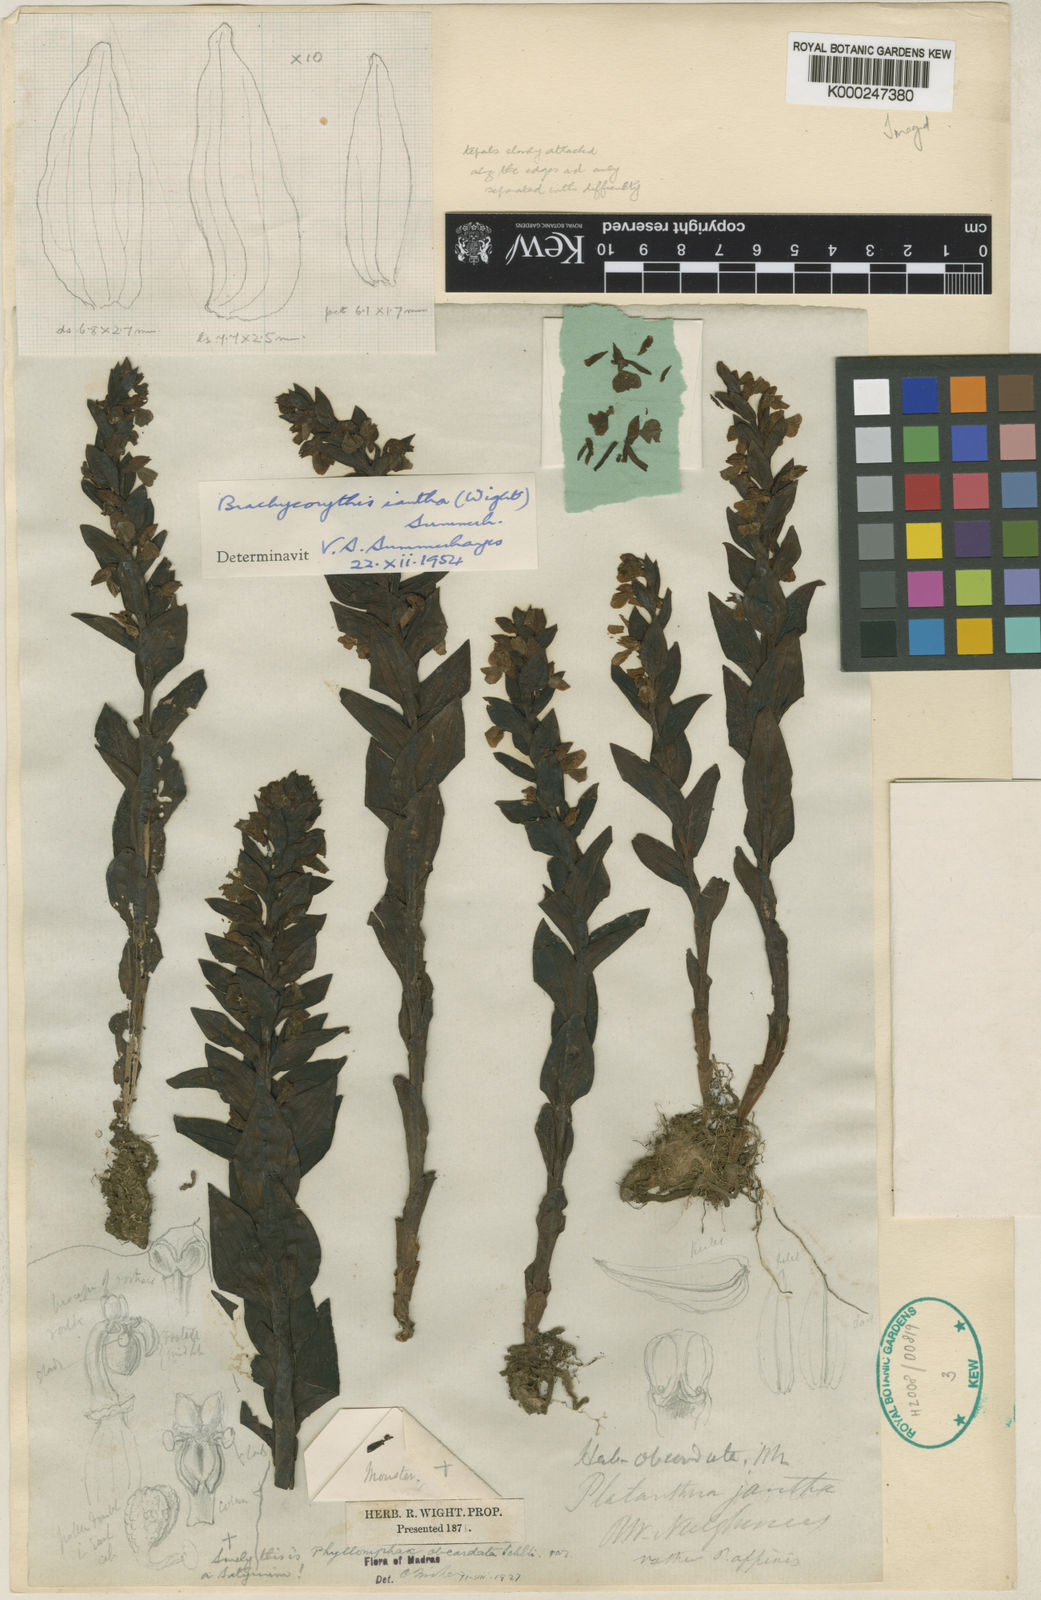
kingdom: Plantae
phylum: Tracheophyta
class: Liliopsida
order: Asparagales
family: Orchidaceae
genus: Brachycorythis
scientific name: Brachycorythis iantha
